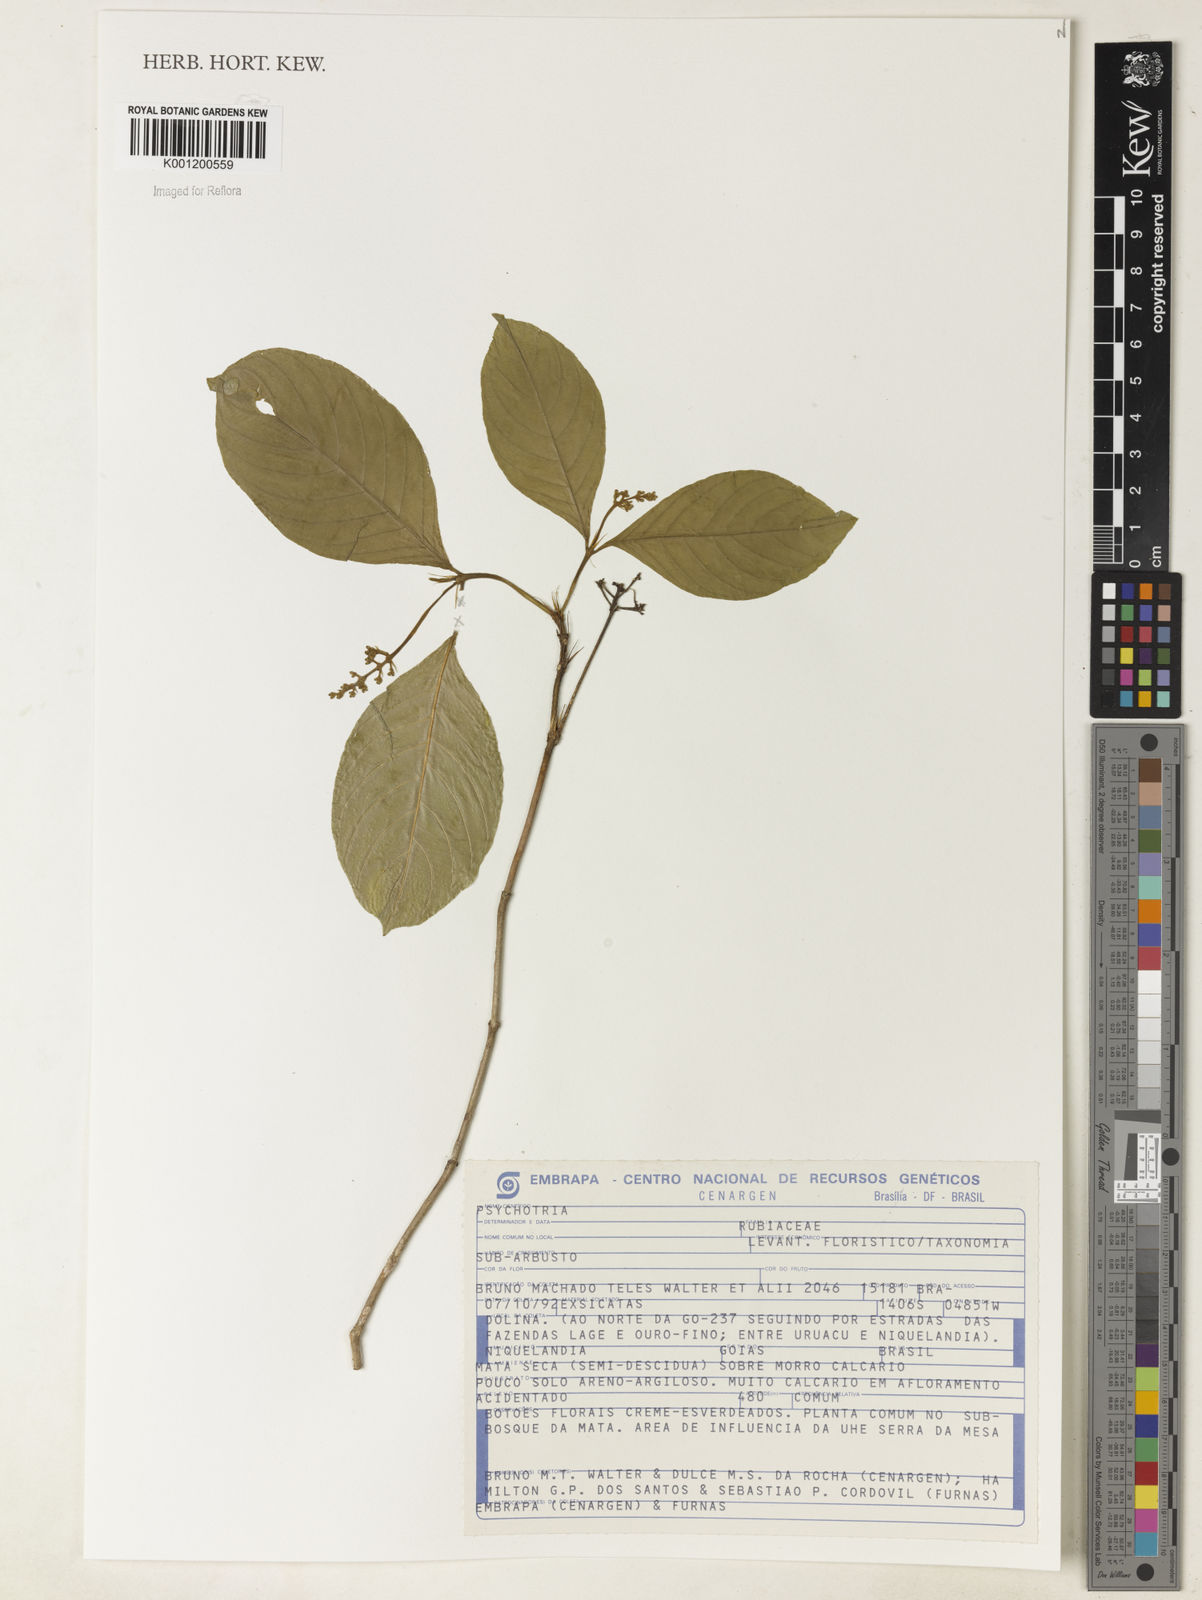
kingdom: Plantae
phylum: Tracheophyta
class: Magnoliopsida
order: Gentianales
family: Rubiaceae
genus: Psychotria
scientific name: Psychotria
